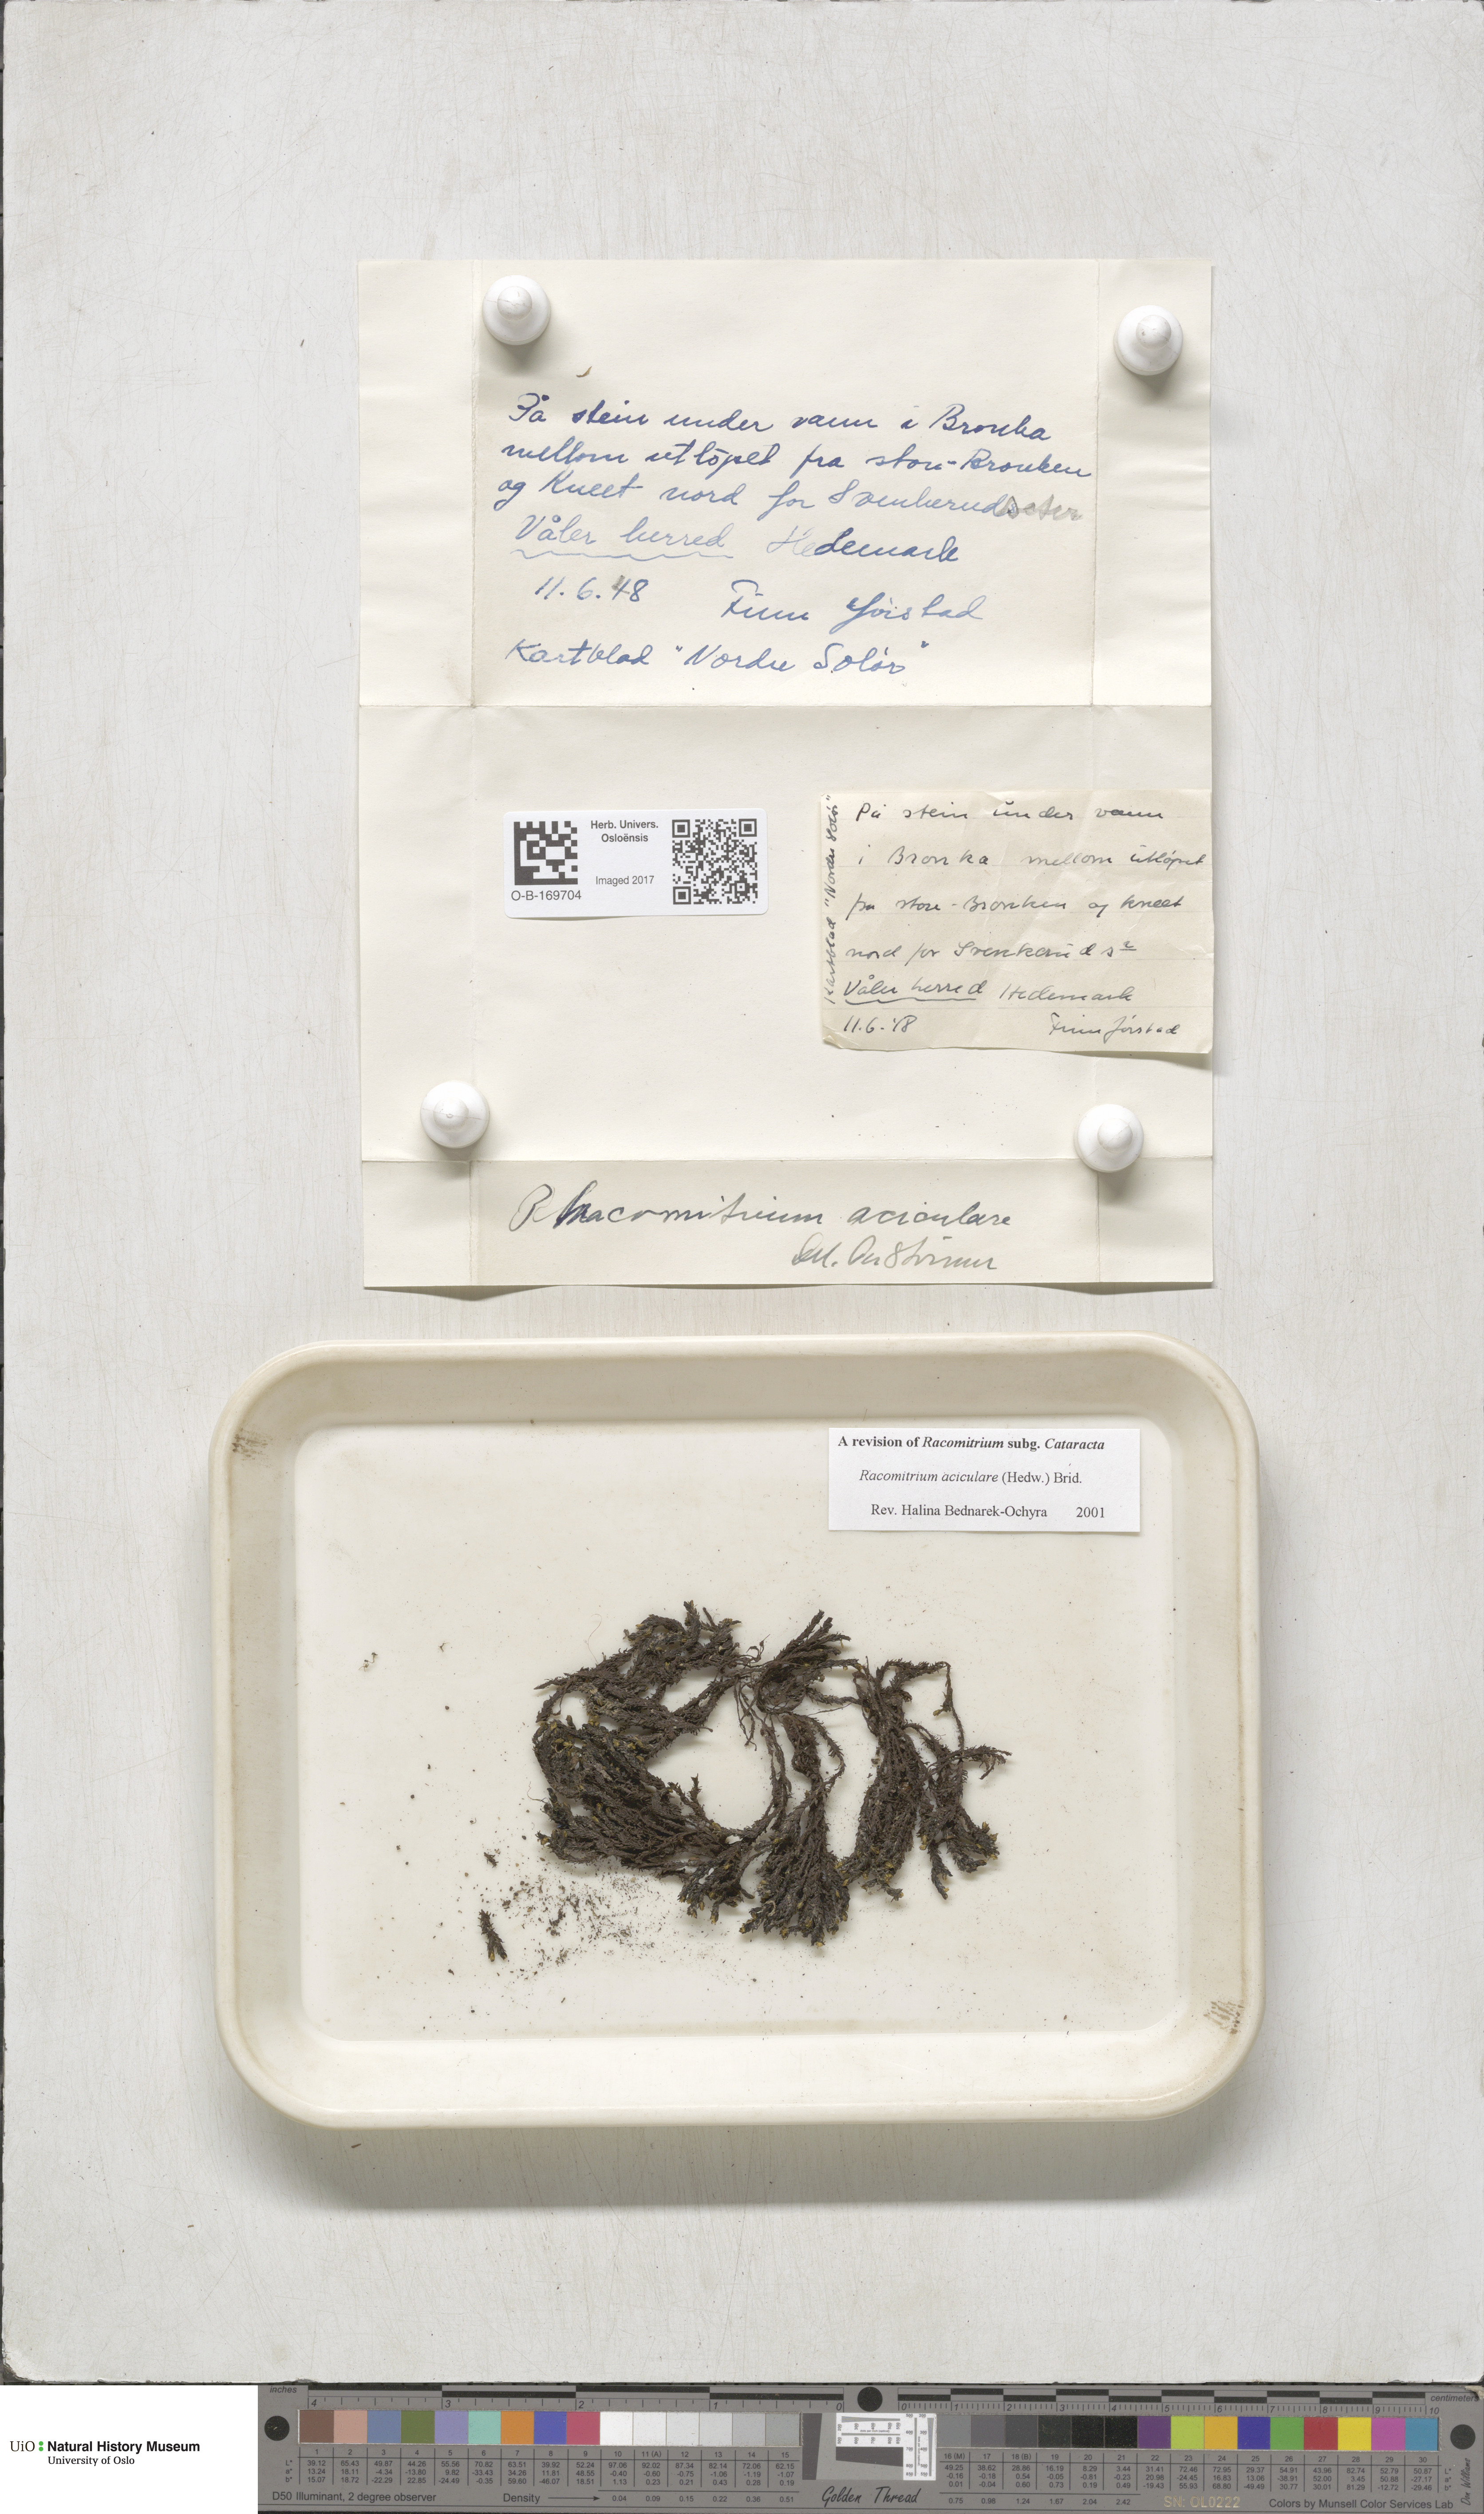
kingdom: Plantae
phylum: Bryophyta
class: Bryopsida
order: Grimmiales
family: Grimmiaceae
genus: Codriophorus
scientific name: Codriophorus acicularis
